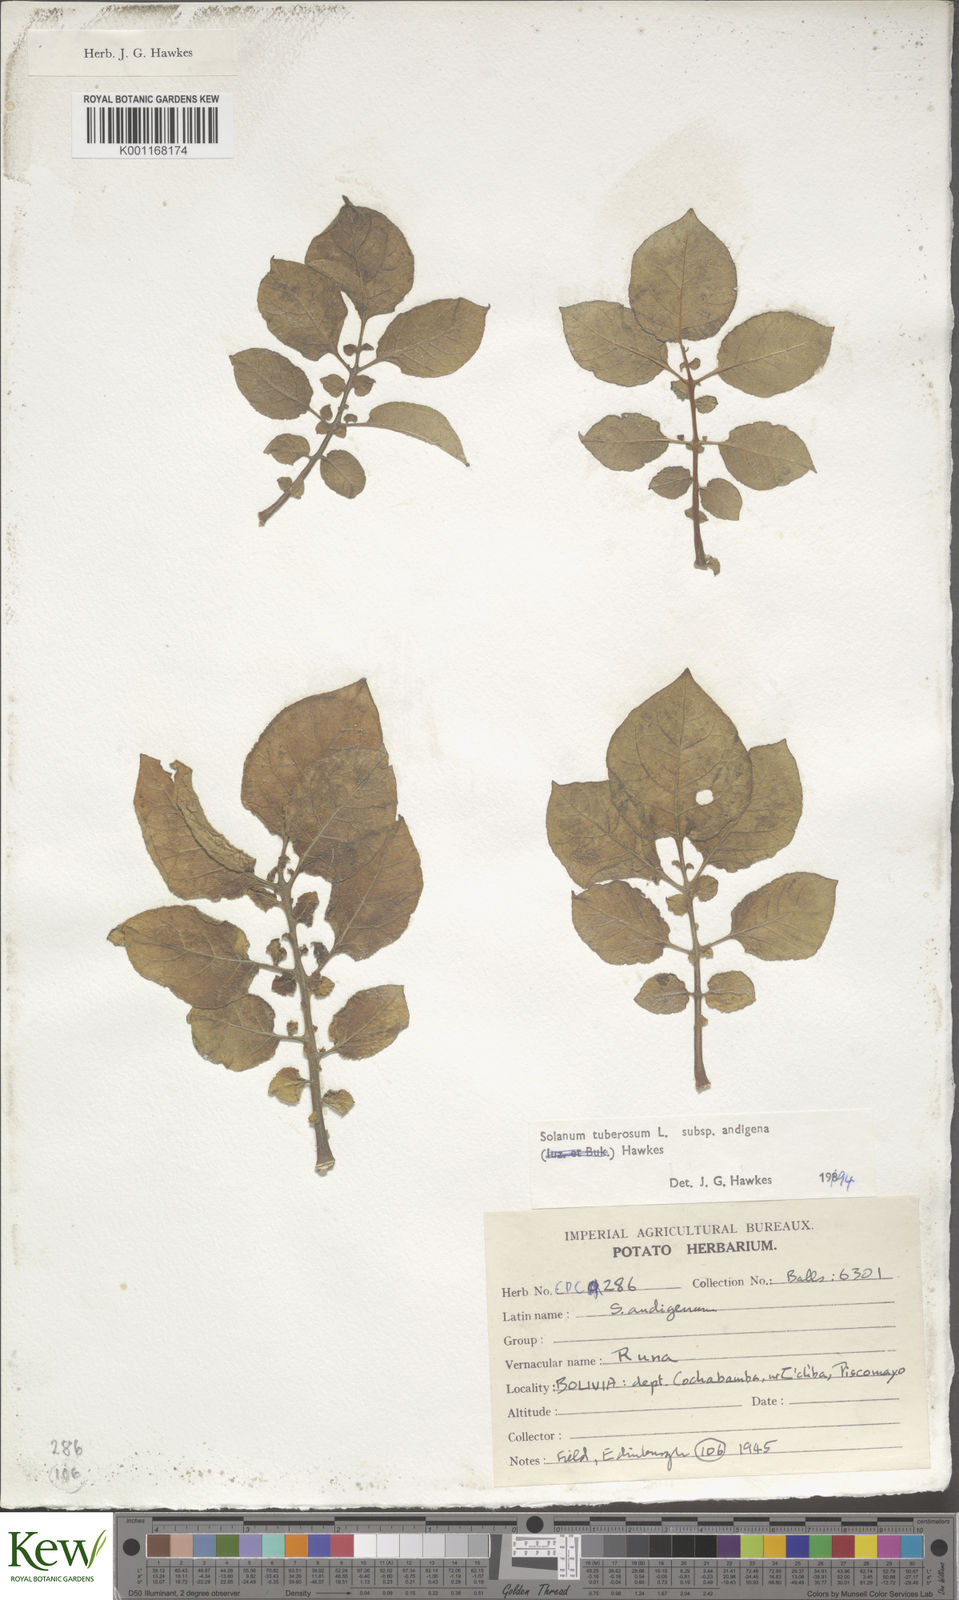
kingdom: Plantae
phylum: Tracheophyta
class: Magnoliopsida
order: Solanales
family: Solanaceae
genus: Solanum
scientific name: Solanum tuberosum
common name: Potato
